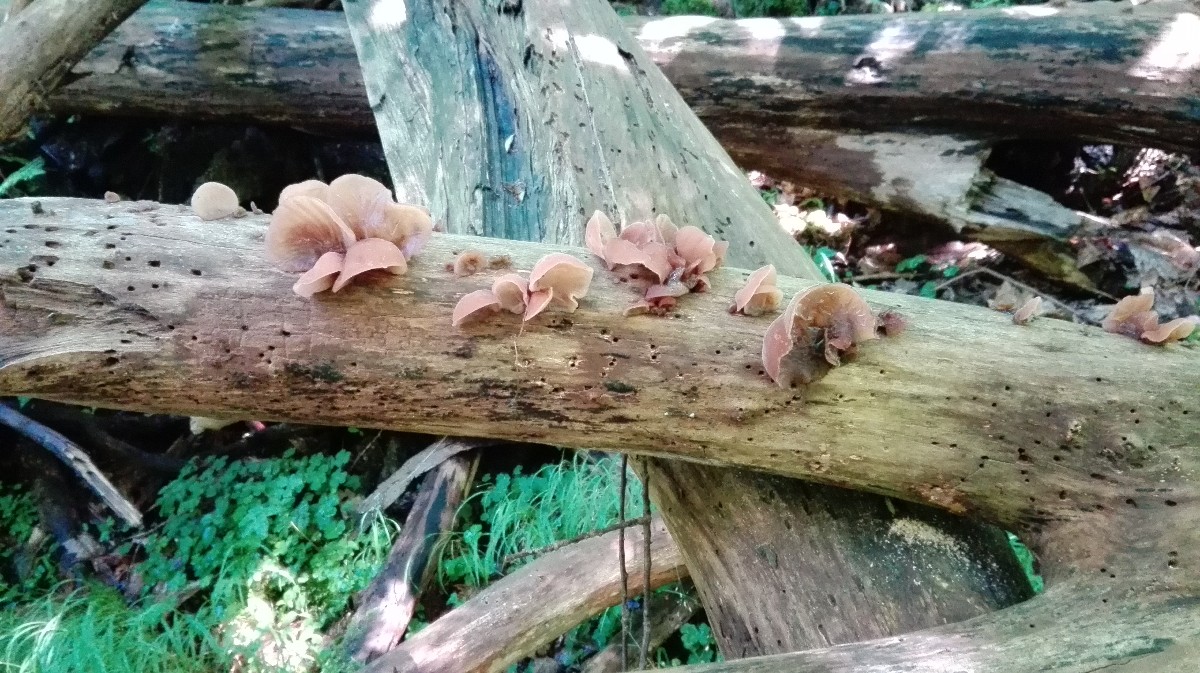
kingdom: Fungi
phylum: Basidiomycota
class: Agaricomycetes
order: Auriculariales
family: Auriculariaceae
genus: Auricularia
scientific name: Auricularia auricula-judae
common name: almindelig judasøre
